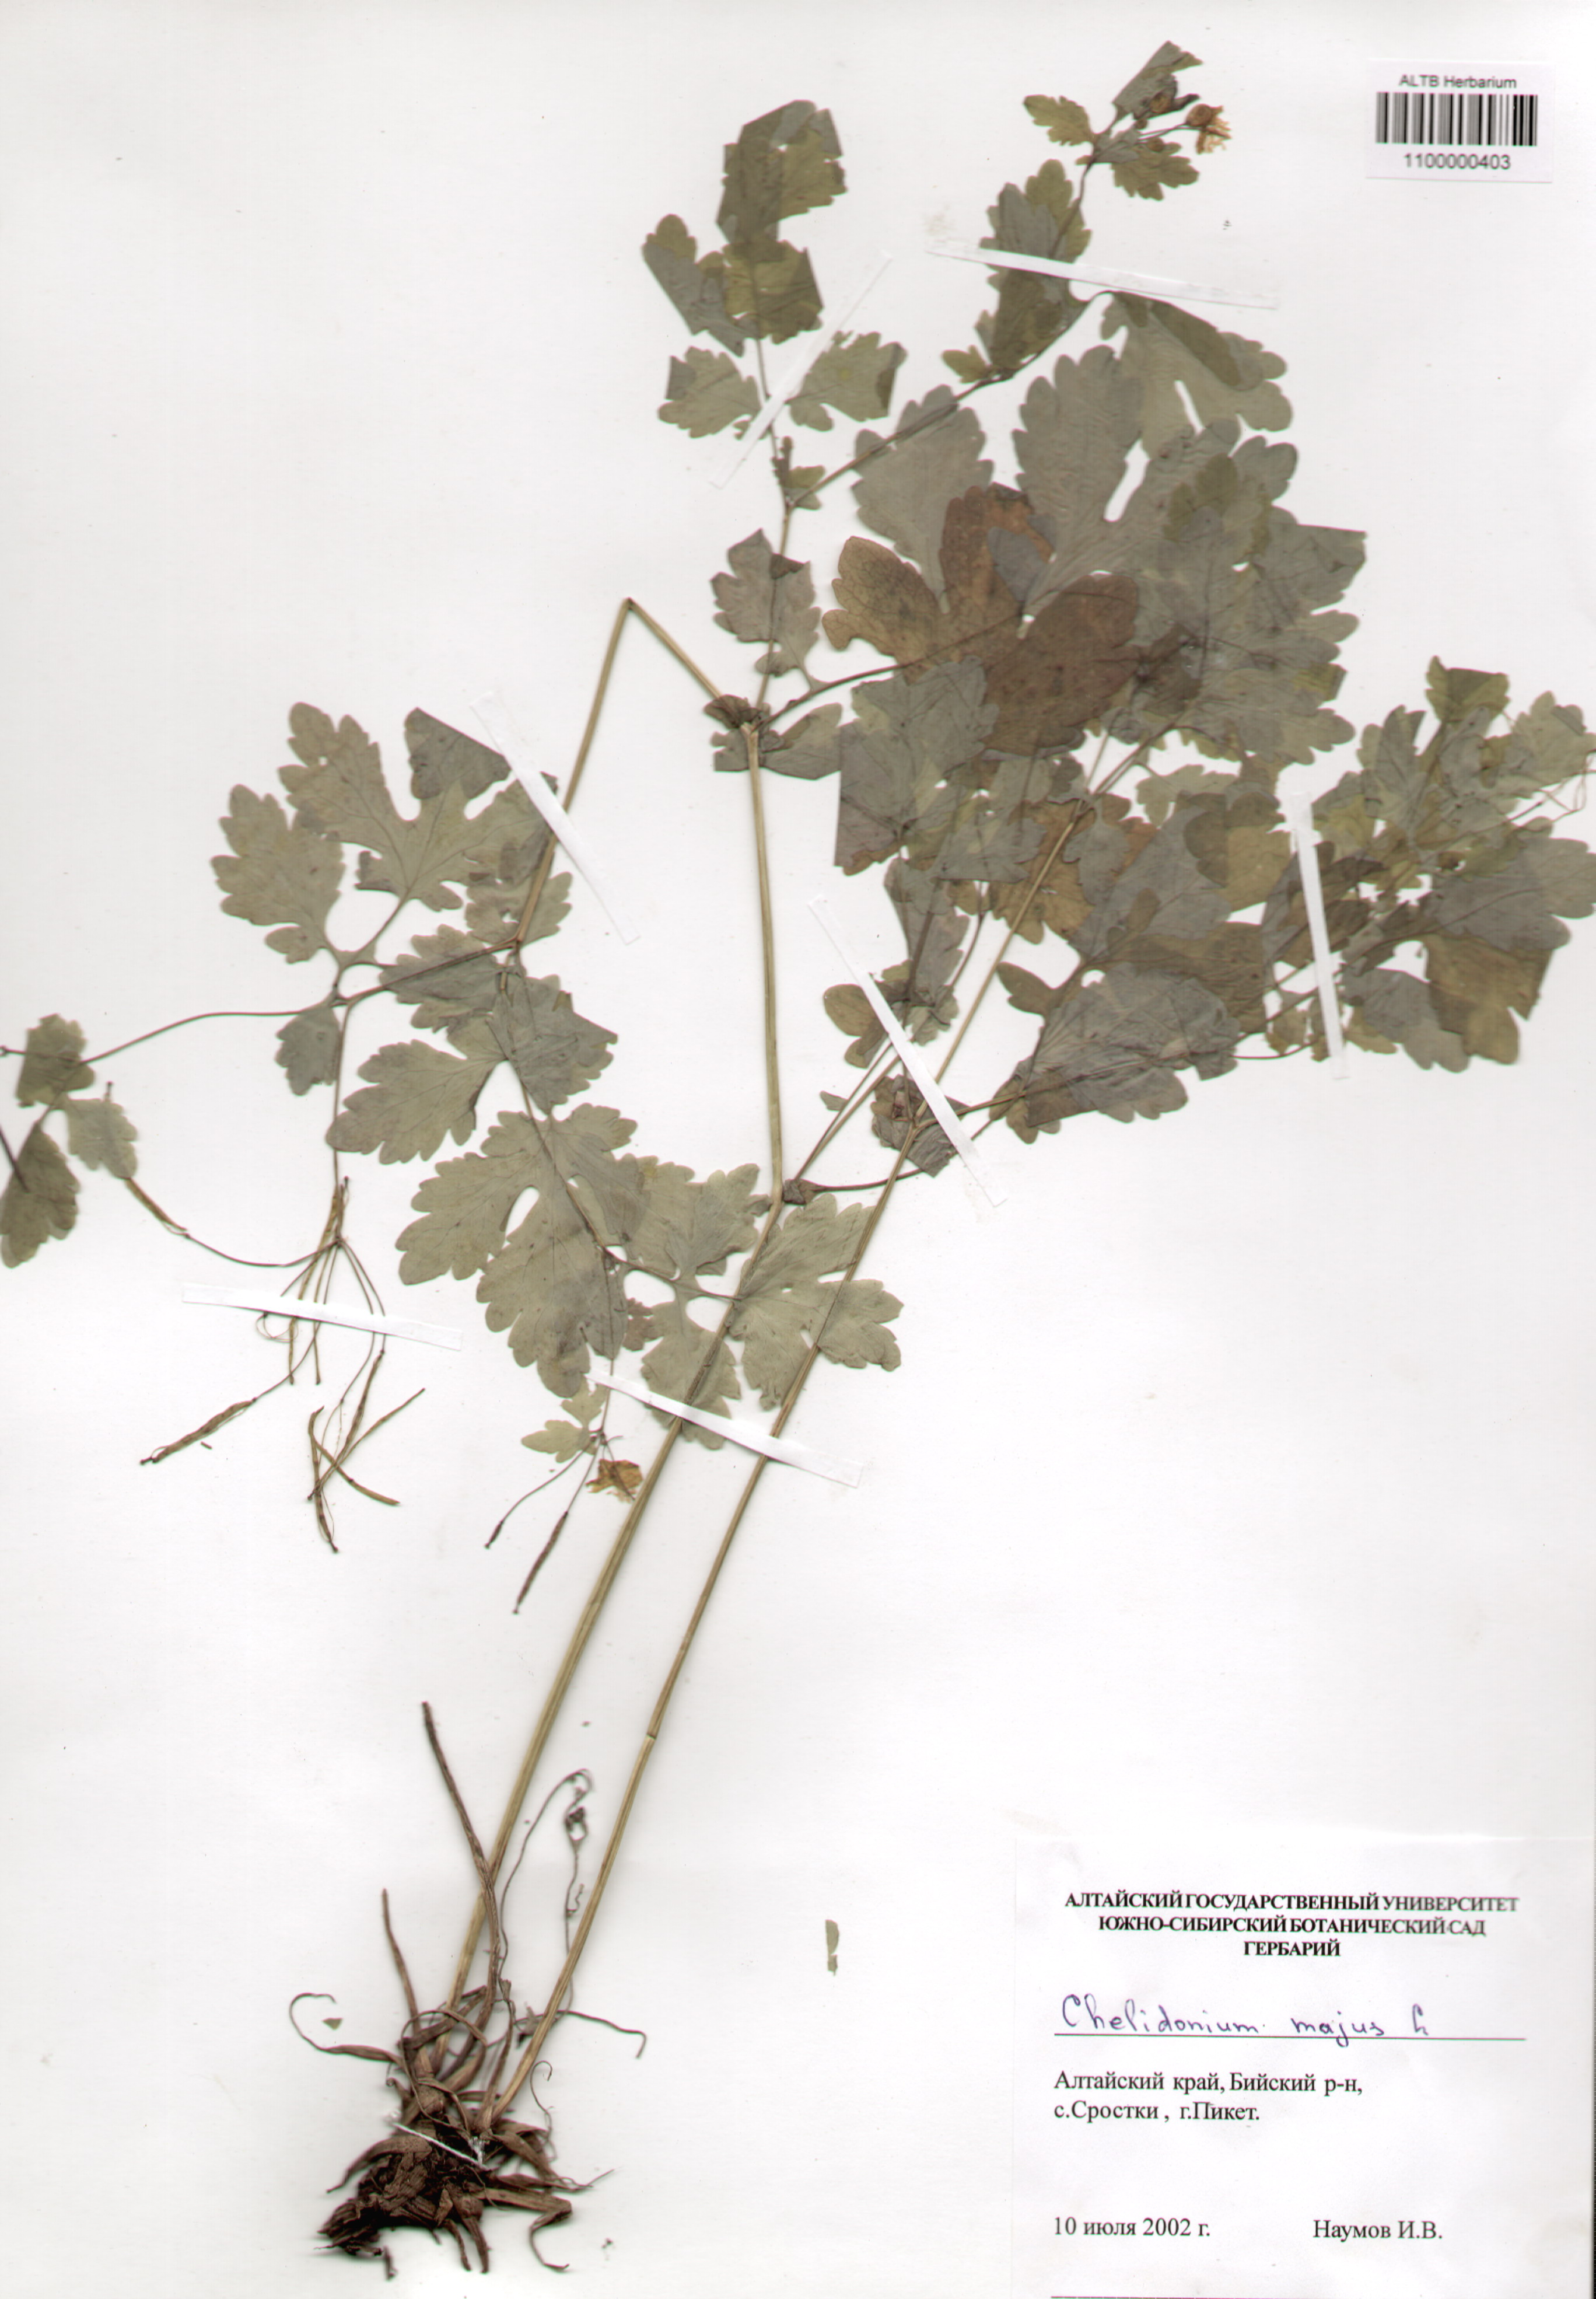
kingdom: Plantae
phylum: Tracheophyta
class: Magnoliopsida
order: Ranunculales
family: Papaveraceae
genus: Chelidonium
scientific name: Chelidonium majus
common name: Greater celandine
